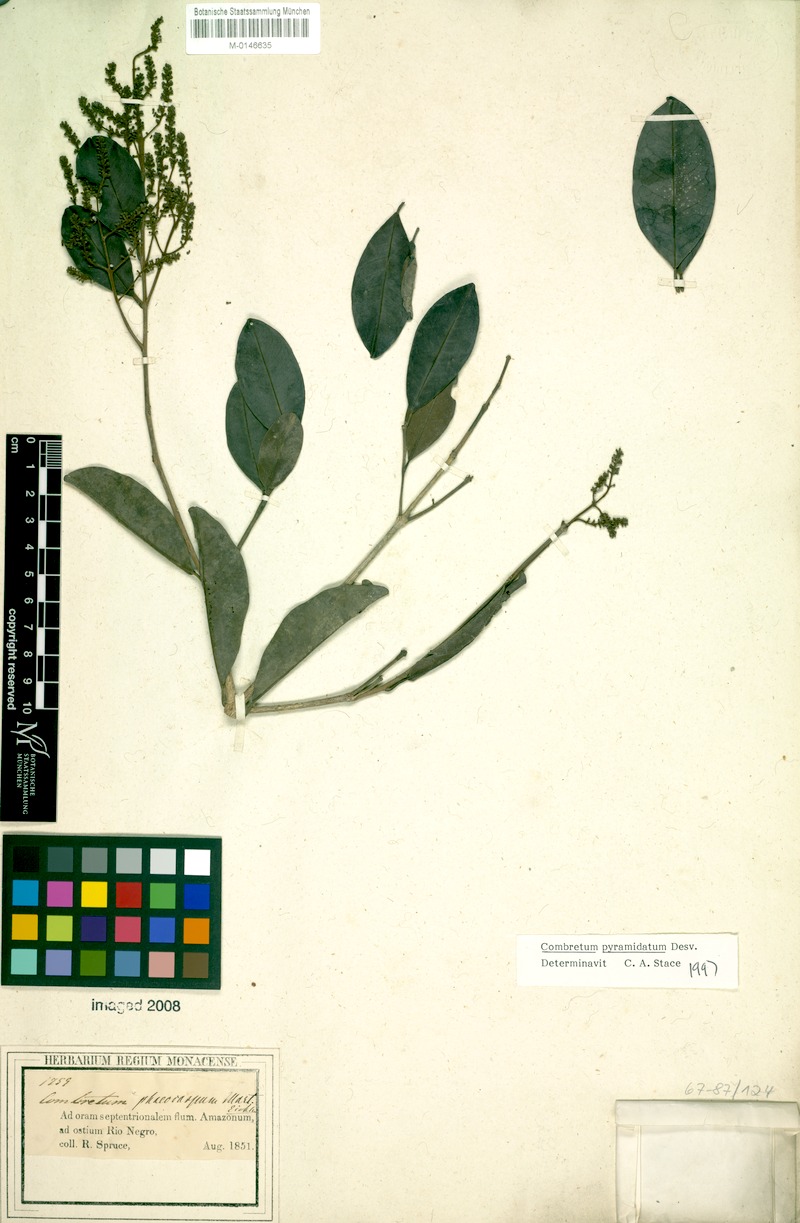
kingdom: Plantae
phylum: Tracheophyta
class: Magnoliopsida
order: Myrtales
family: Combretaceae
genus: Combretum
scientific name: Combretum pyramidatum
